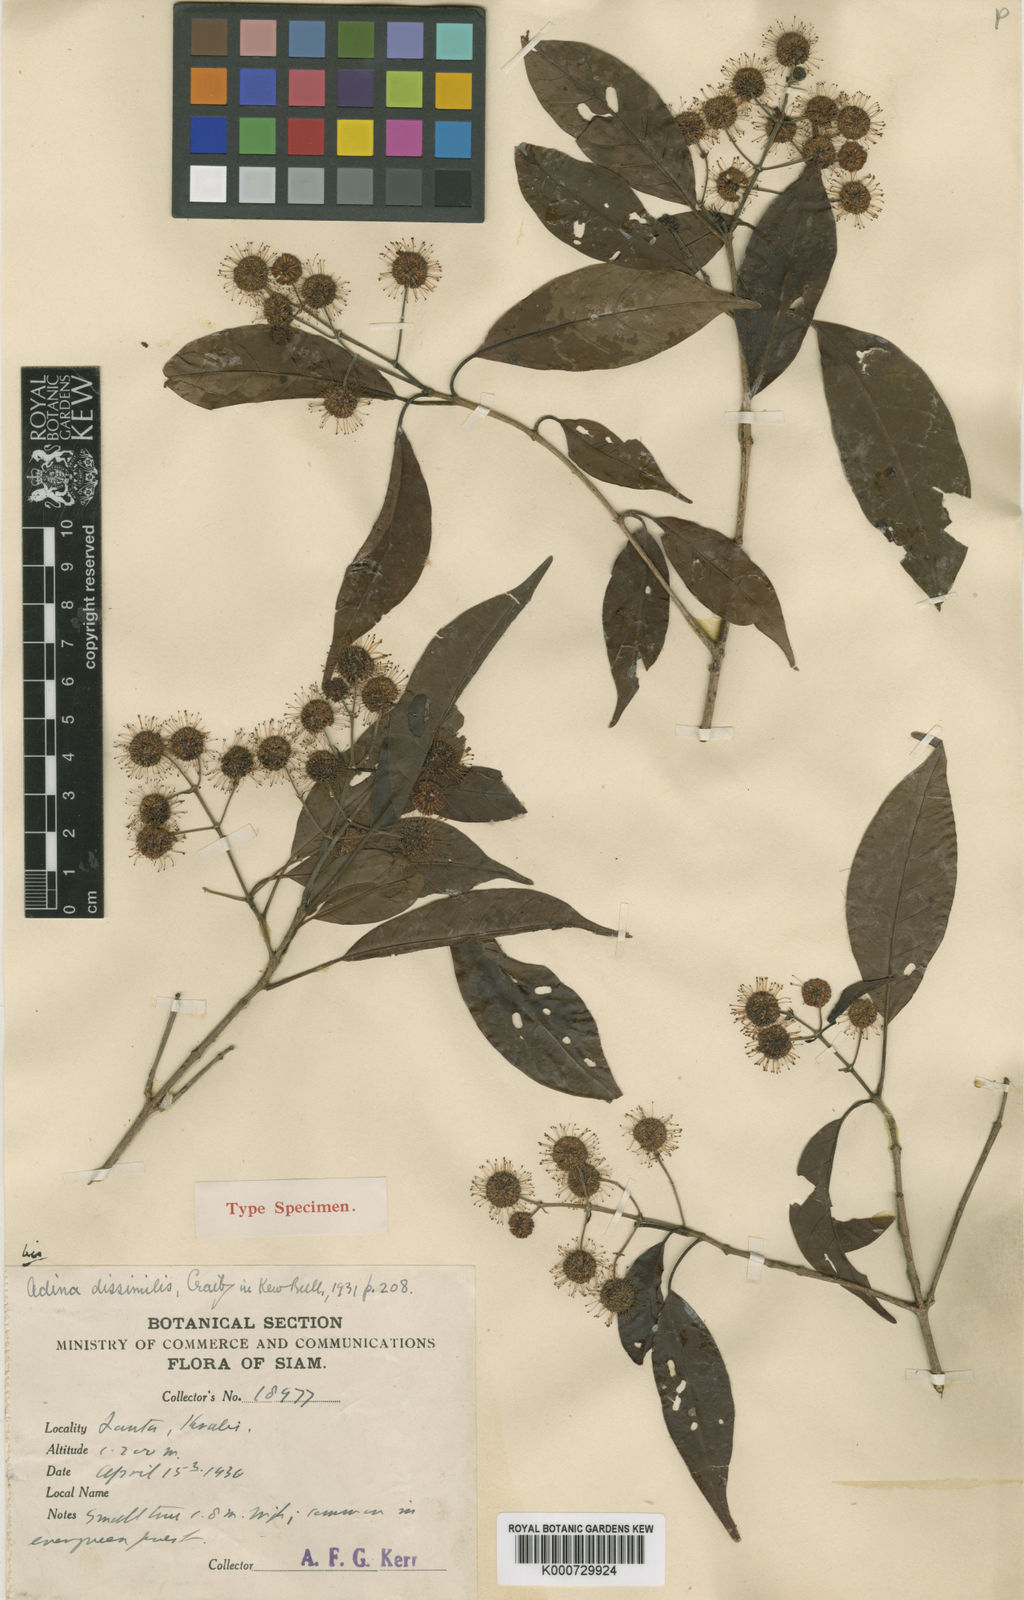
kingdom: Plantae
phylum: Tracheophyta
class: Magnoliopsida
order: Gentianales
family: Rubiaceae
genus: Adina
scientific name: Adina dissimilis
